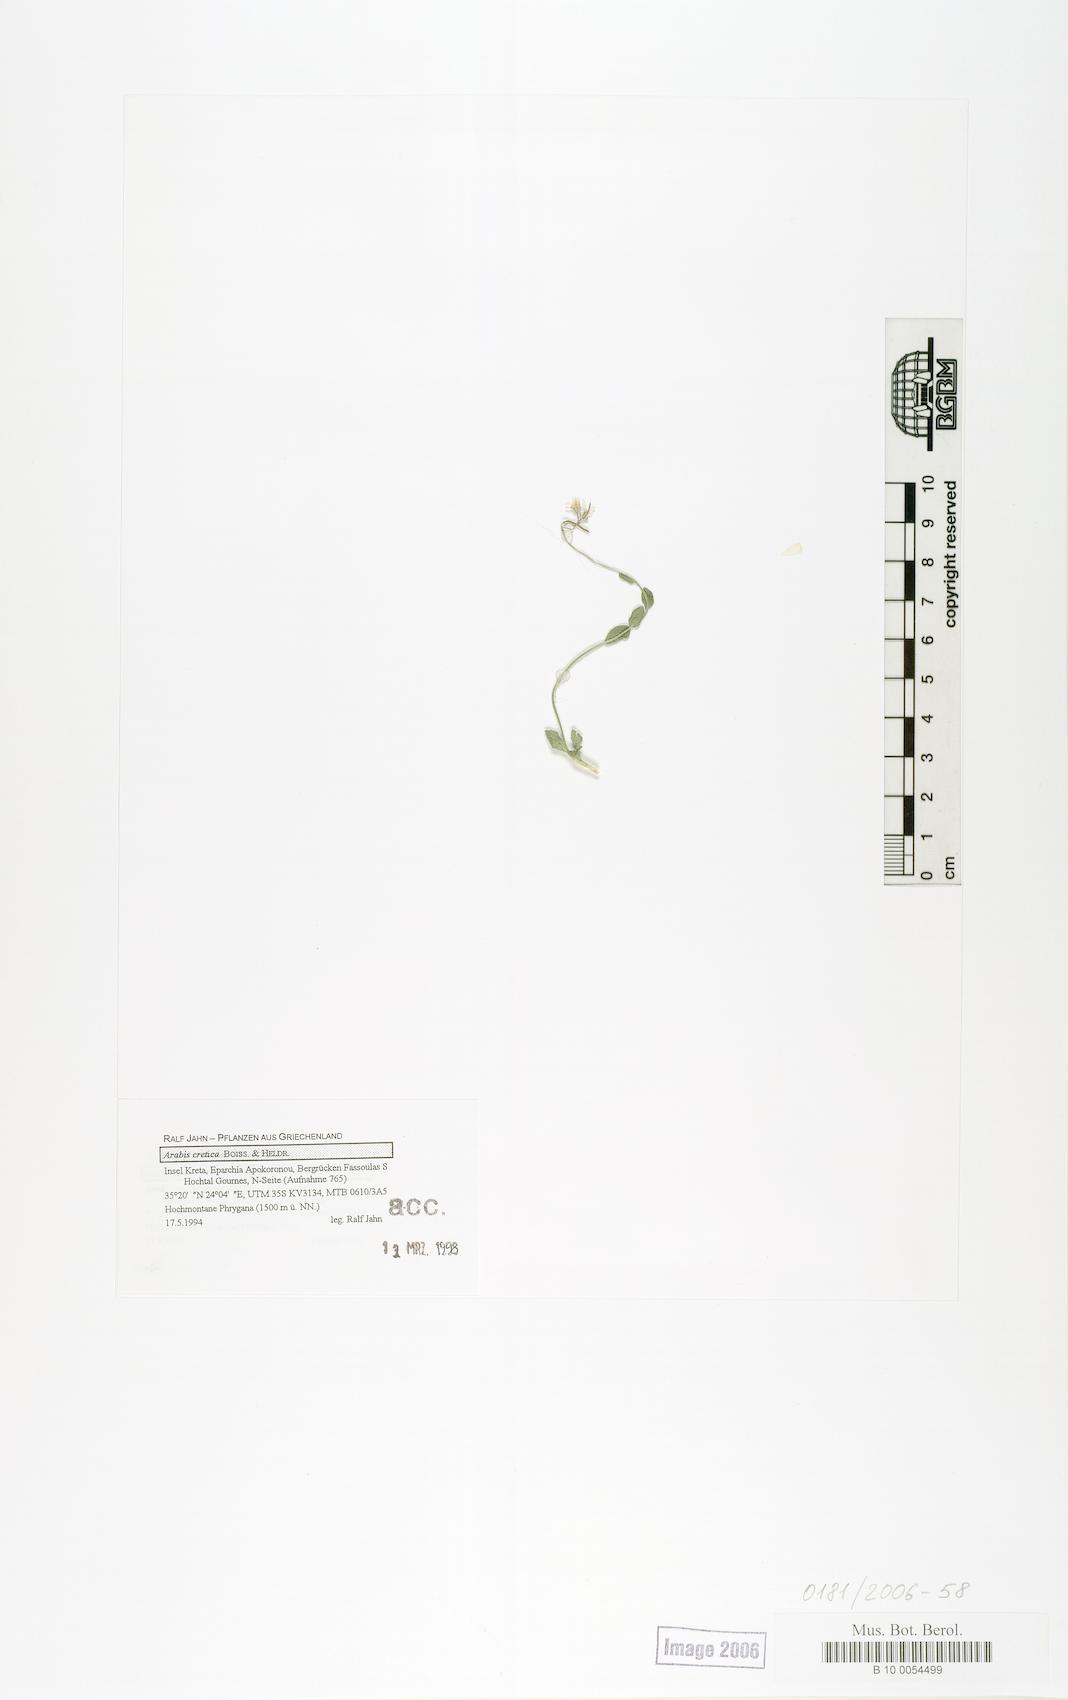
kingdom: Plantae
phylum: Tracheophyta
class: Magnoliopsida
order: Brassicales
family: Brassicaceae
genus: Arabis
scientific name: Arabis cretica
